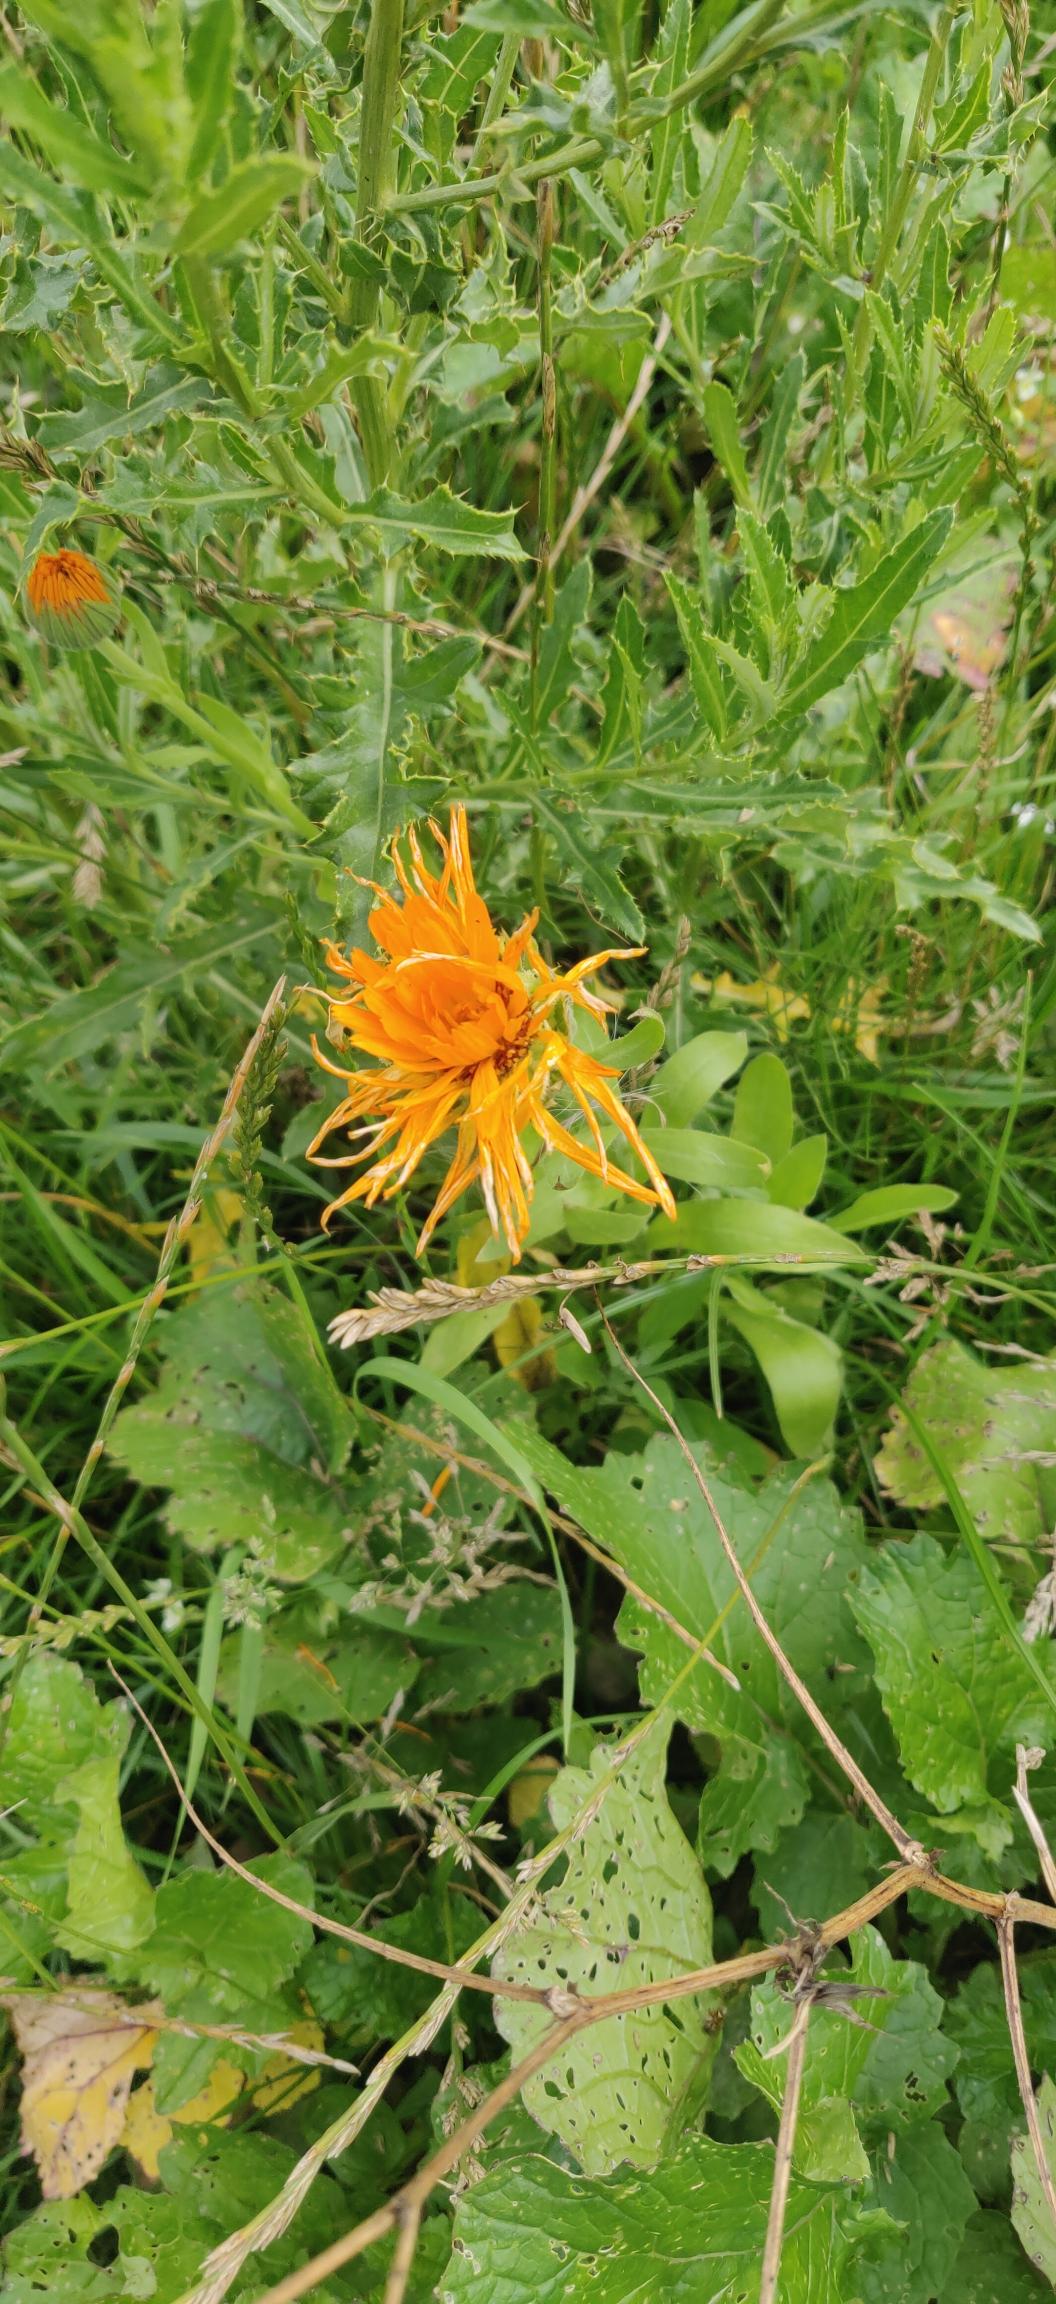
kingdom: Plantae
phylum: Tracheophyta
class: Magnoliopsida
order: Asterales
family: Asteraceae
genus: Calendula
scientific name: Calendula officinalis
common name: Have-morgenfrue
